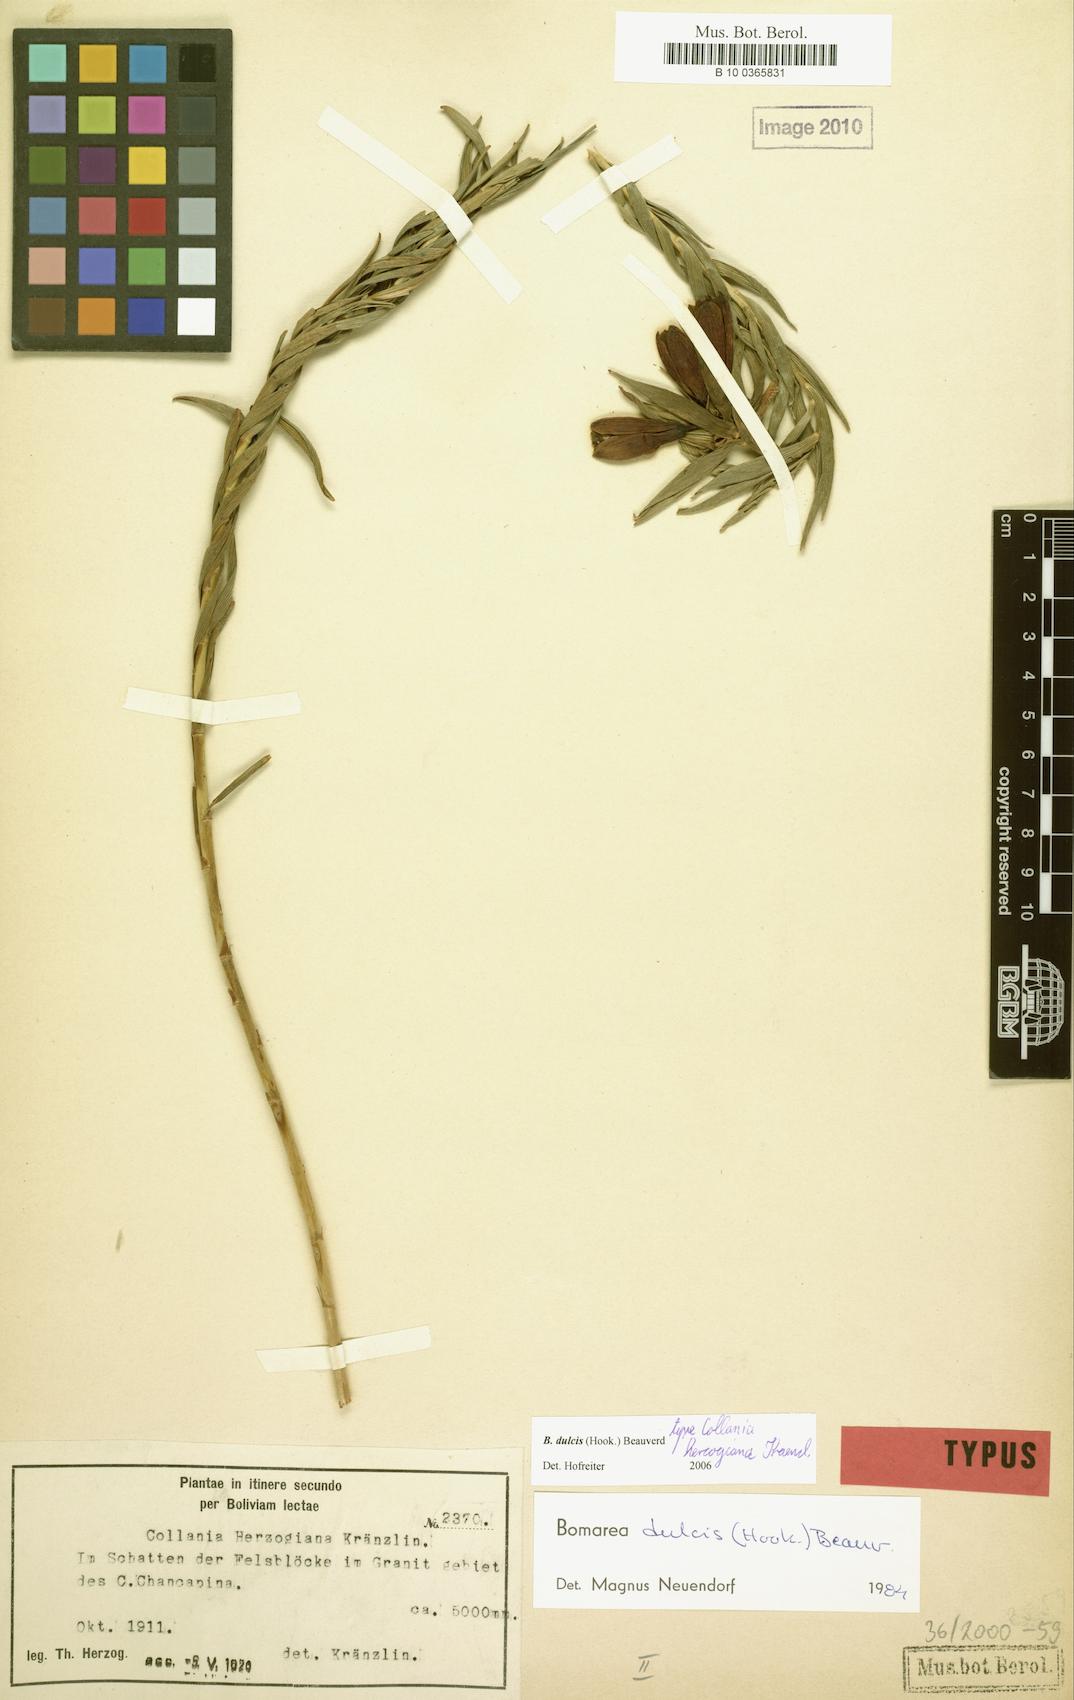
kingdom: Plantae
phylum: Tracheophyta
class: Liliopsida
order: Liliales
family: Alstroemeriaceae
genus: Bomarea
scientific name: Bomarea dulcis
